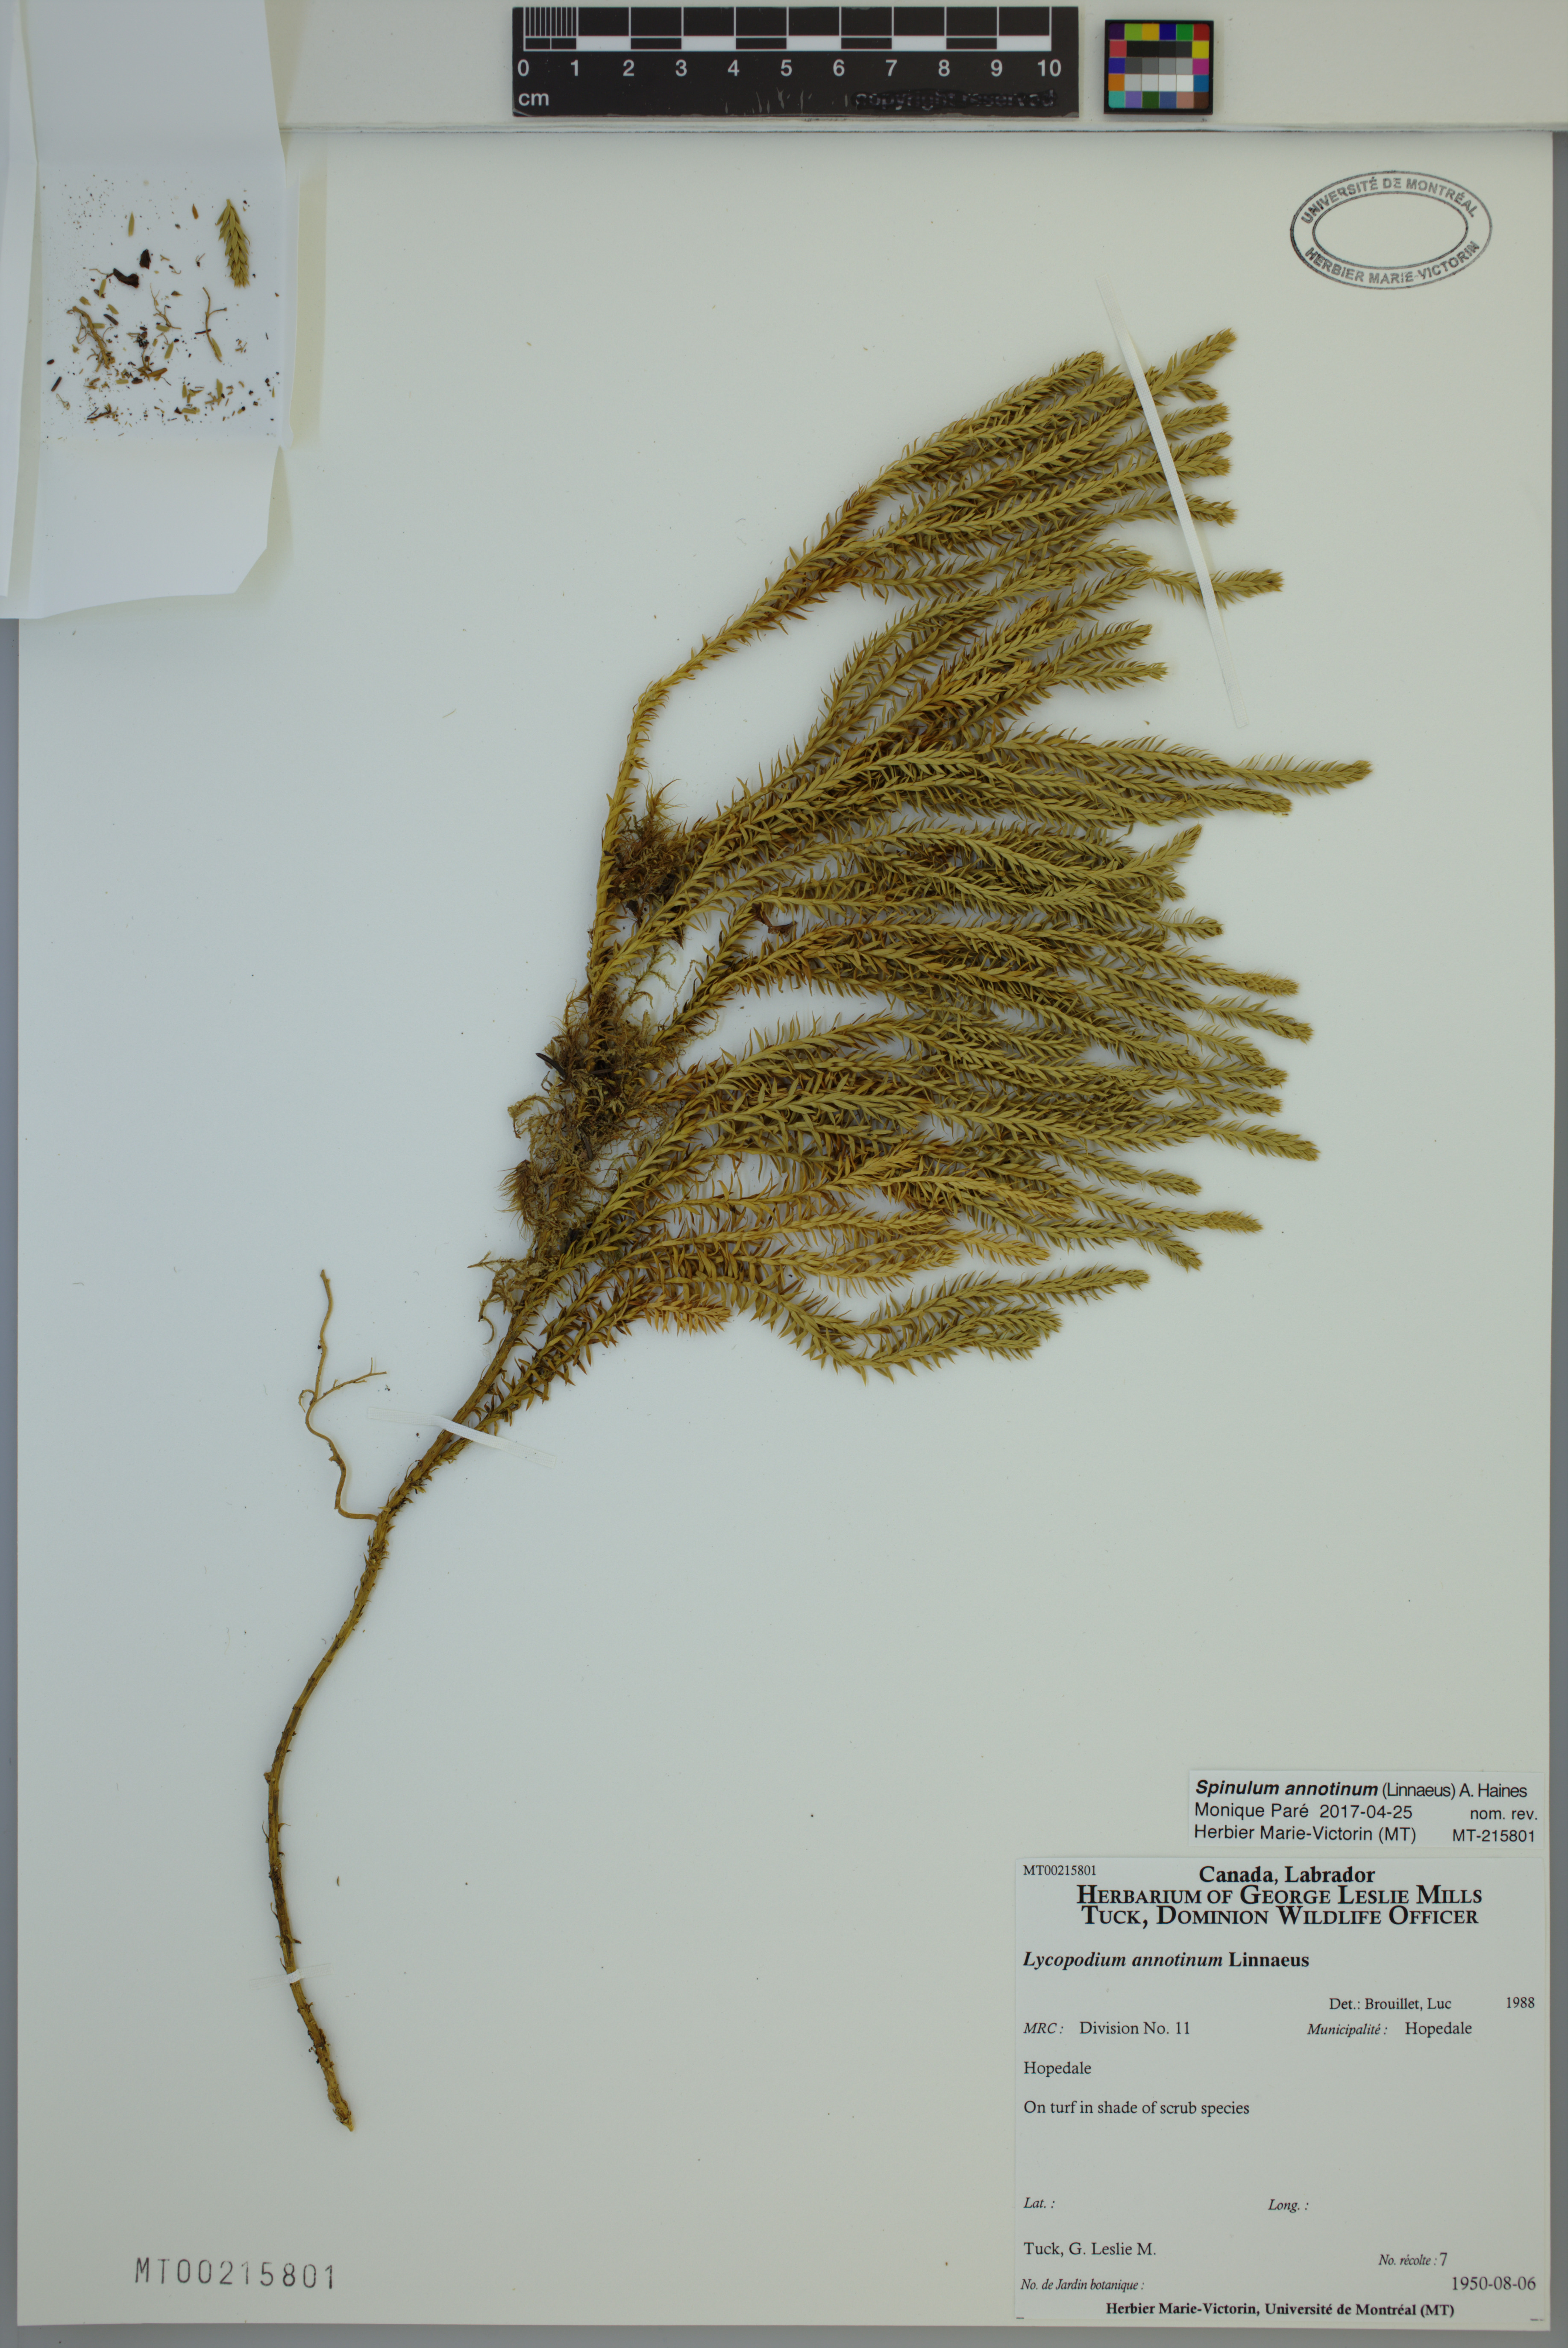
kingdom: Plantae
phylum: Tracheophyta
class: Lycopodiopsida
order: Lycopodiales
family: Lycopodiaceae
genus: Spinulum
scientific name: Spinulum annotinum
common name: Interrupted club-moss
